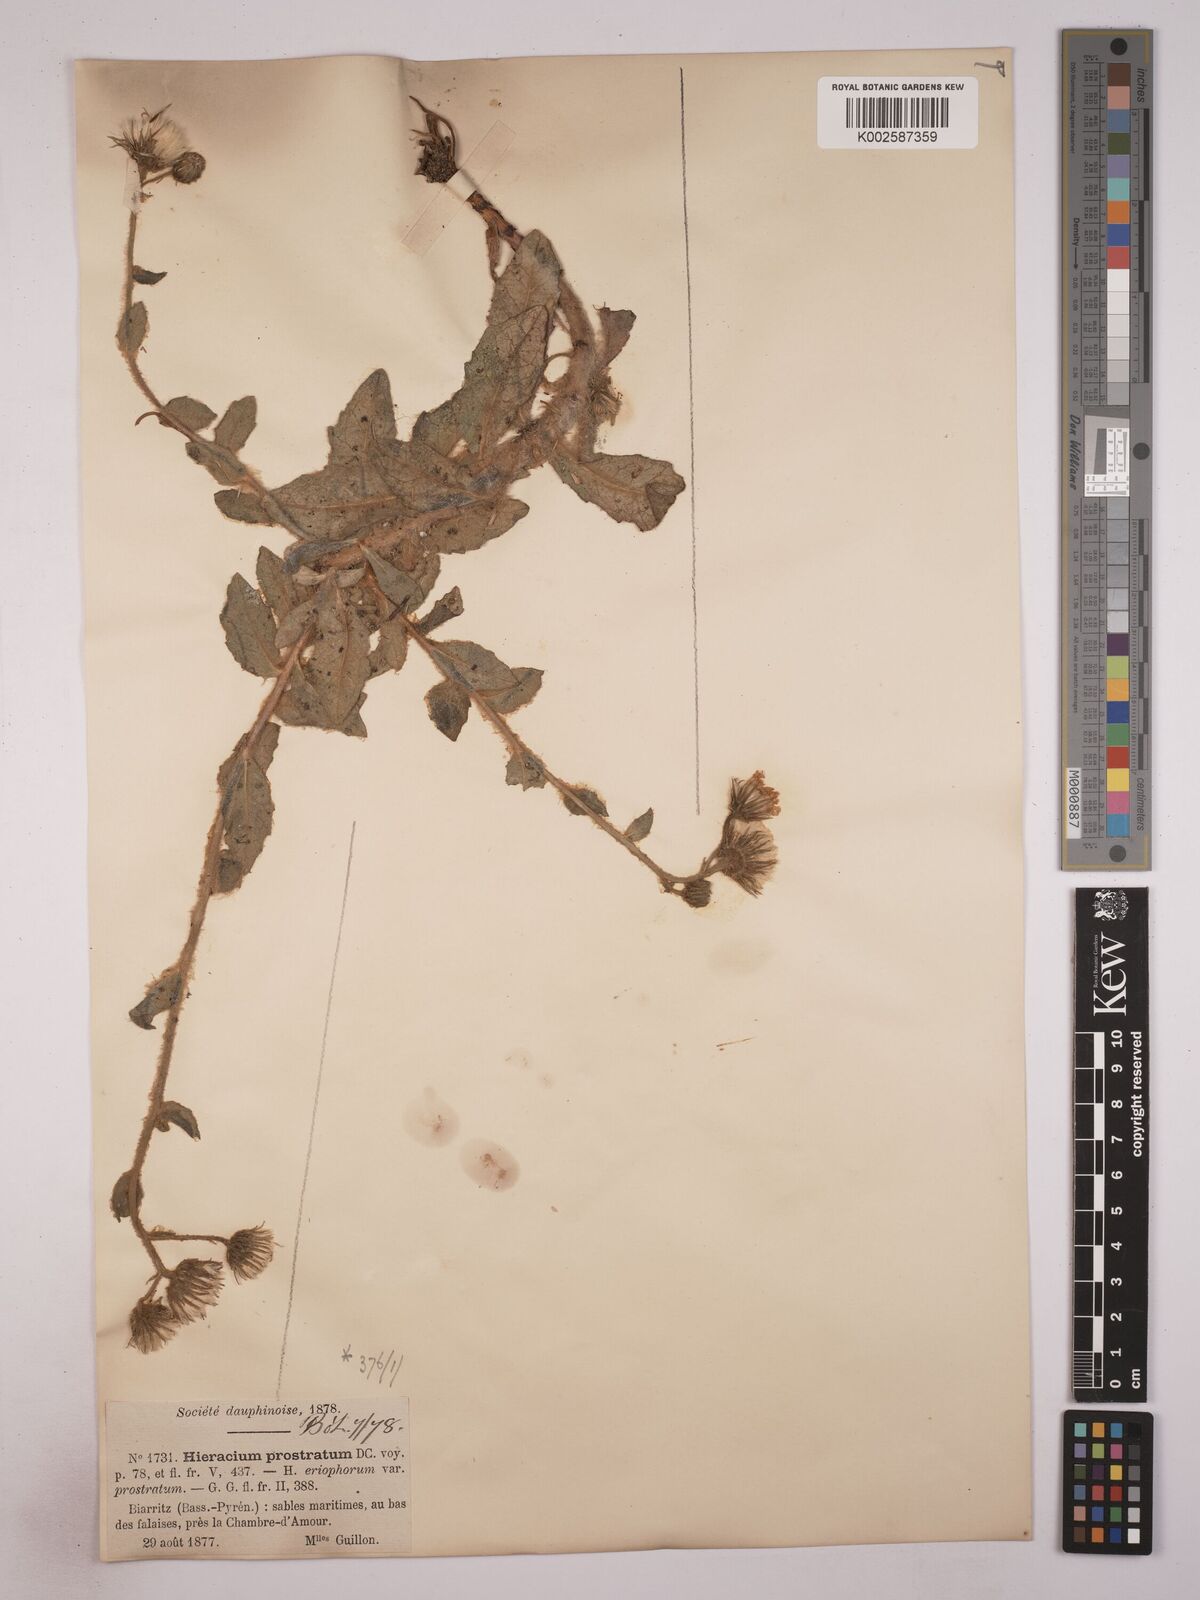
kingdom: Plantae
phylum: Tracheophyta
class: Magnoliopsida
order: Asterales
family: Asteraceae
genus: Hieracium
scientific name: Hieracium prostratum
